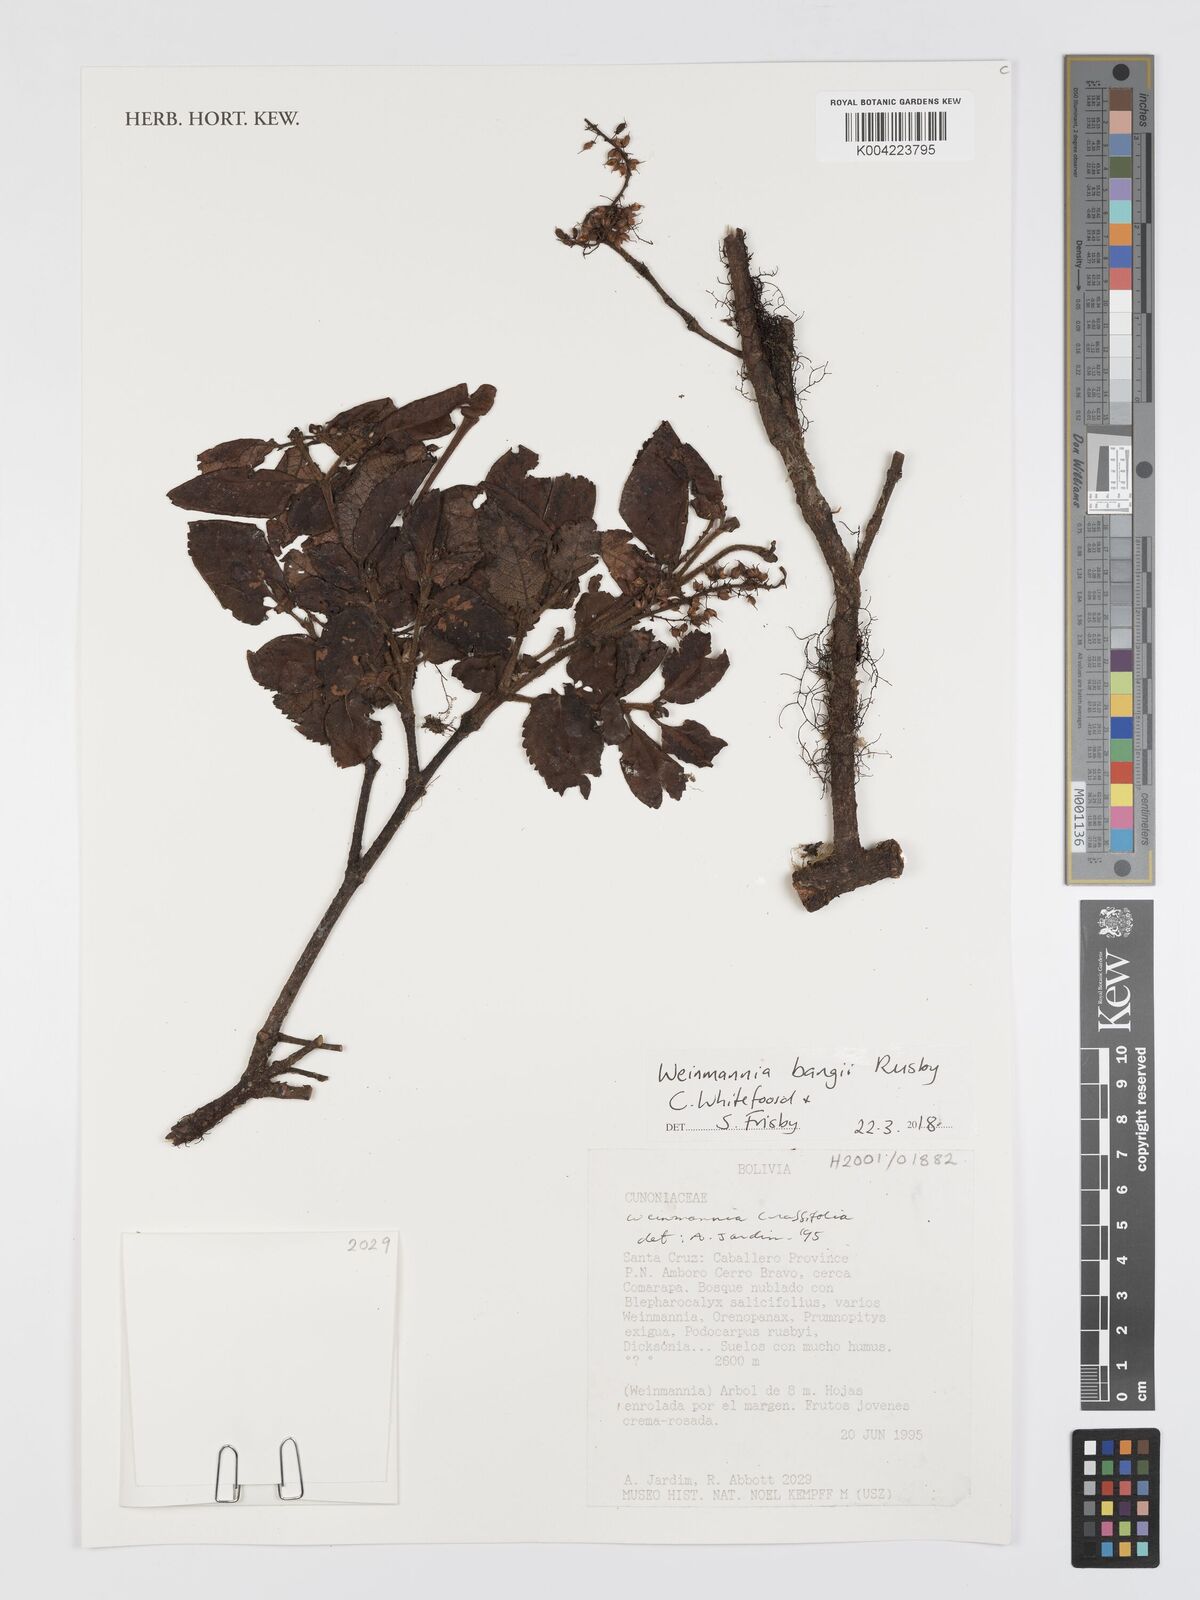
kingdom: Plantae
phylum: Tracheophyta
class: Magnoliopsida
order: Oxalidales
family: Cunoniaceae
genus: Weinmannia
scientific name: Weinmannia bangii
